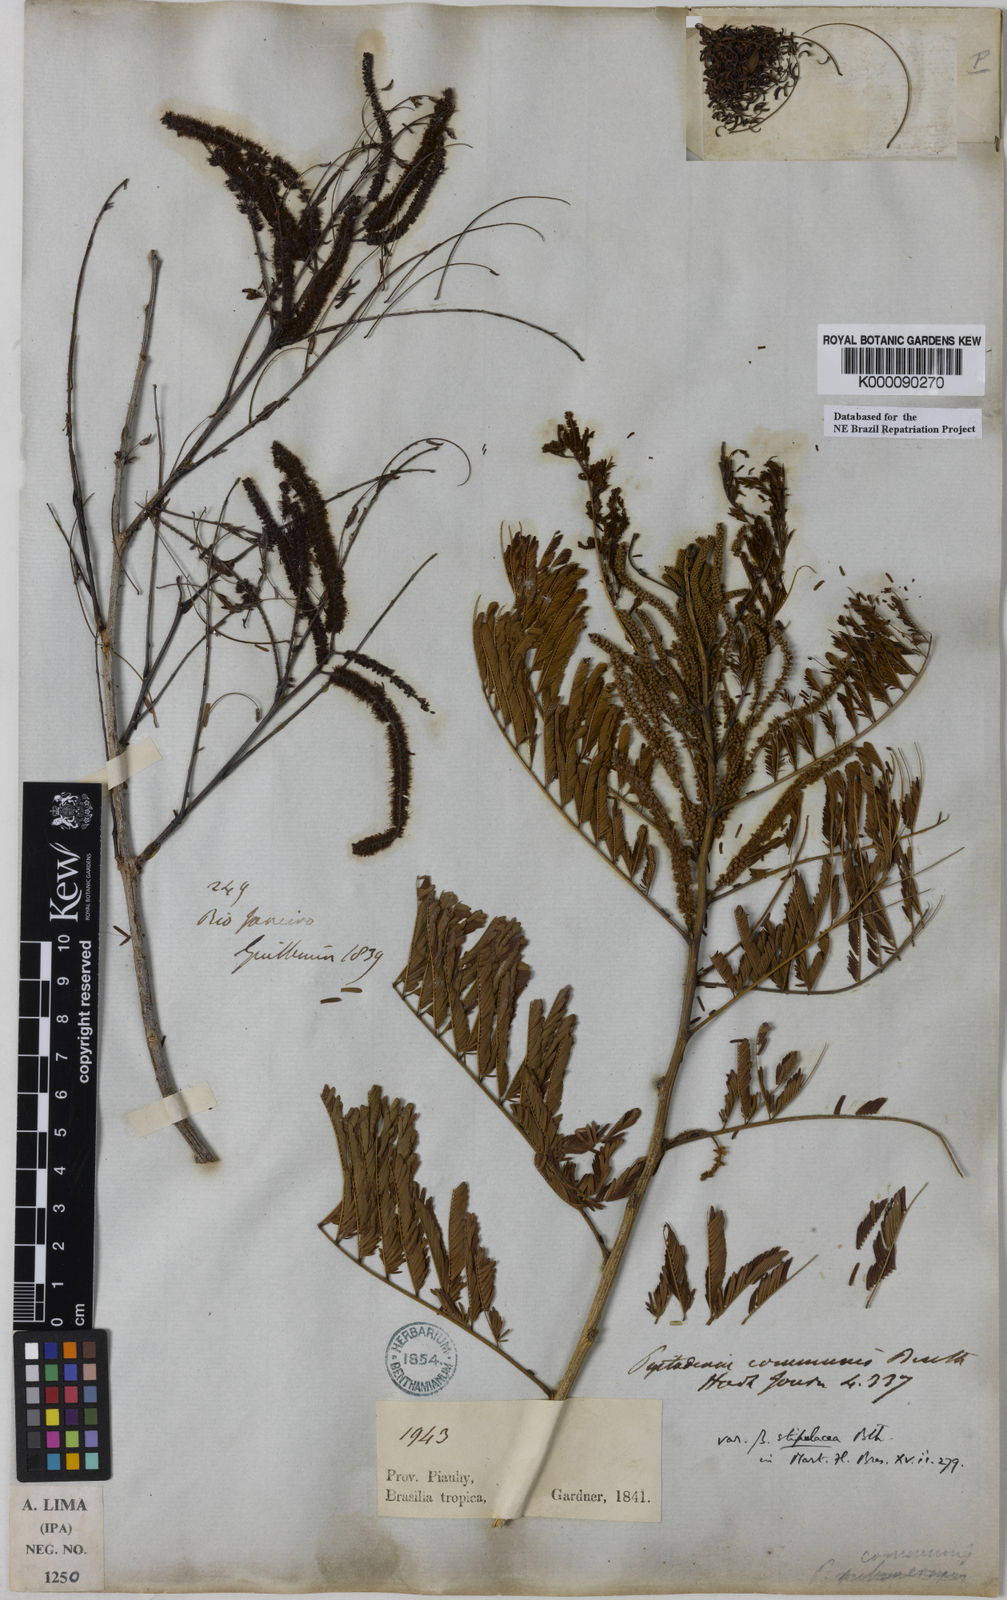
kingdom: Plantae
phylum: Tracheophyta
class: Magnoliopsida
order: Fabales
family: Fabaceae
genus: Piptadenia
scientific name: Piptadenia retusa
